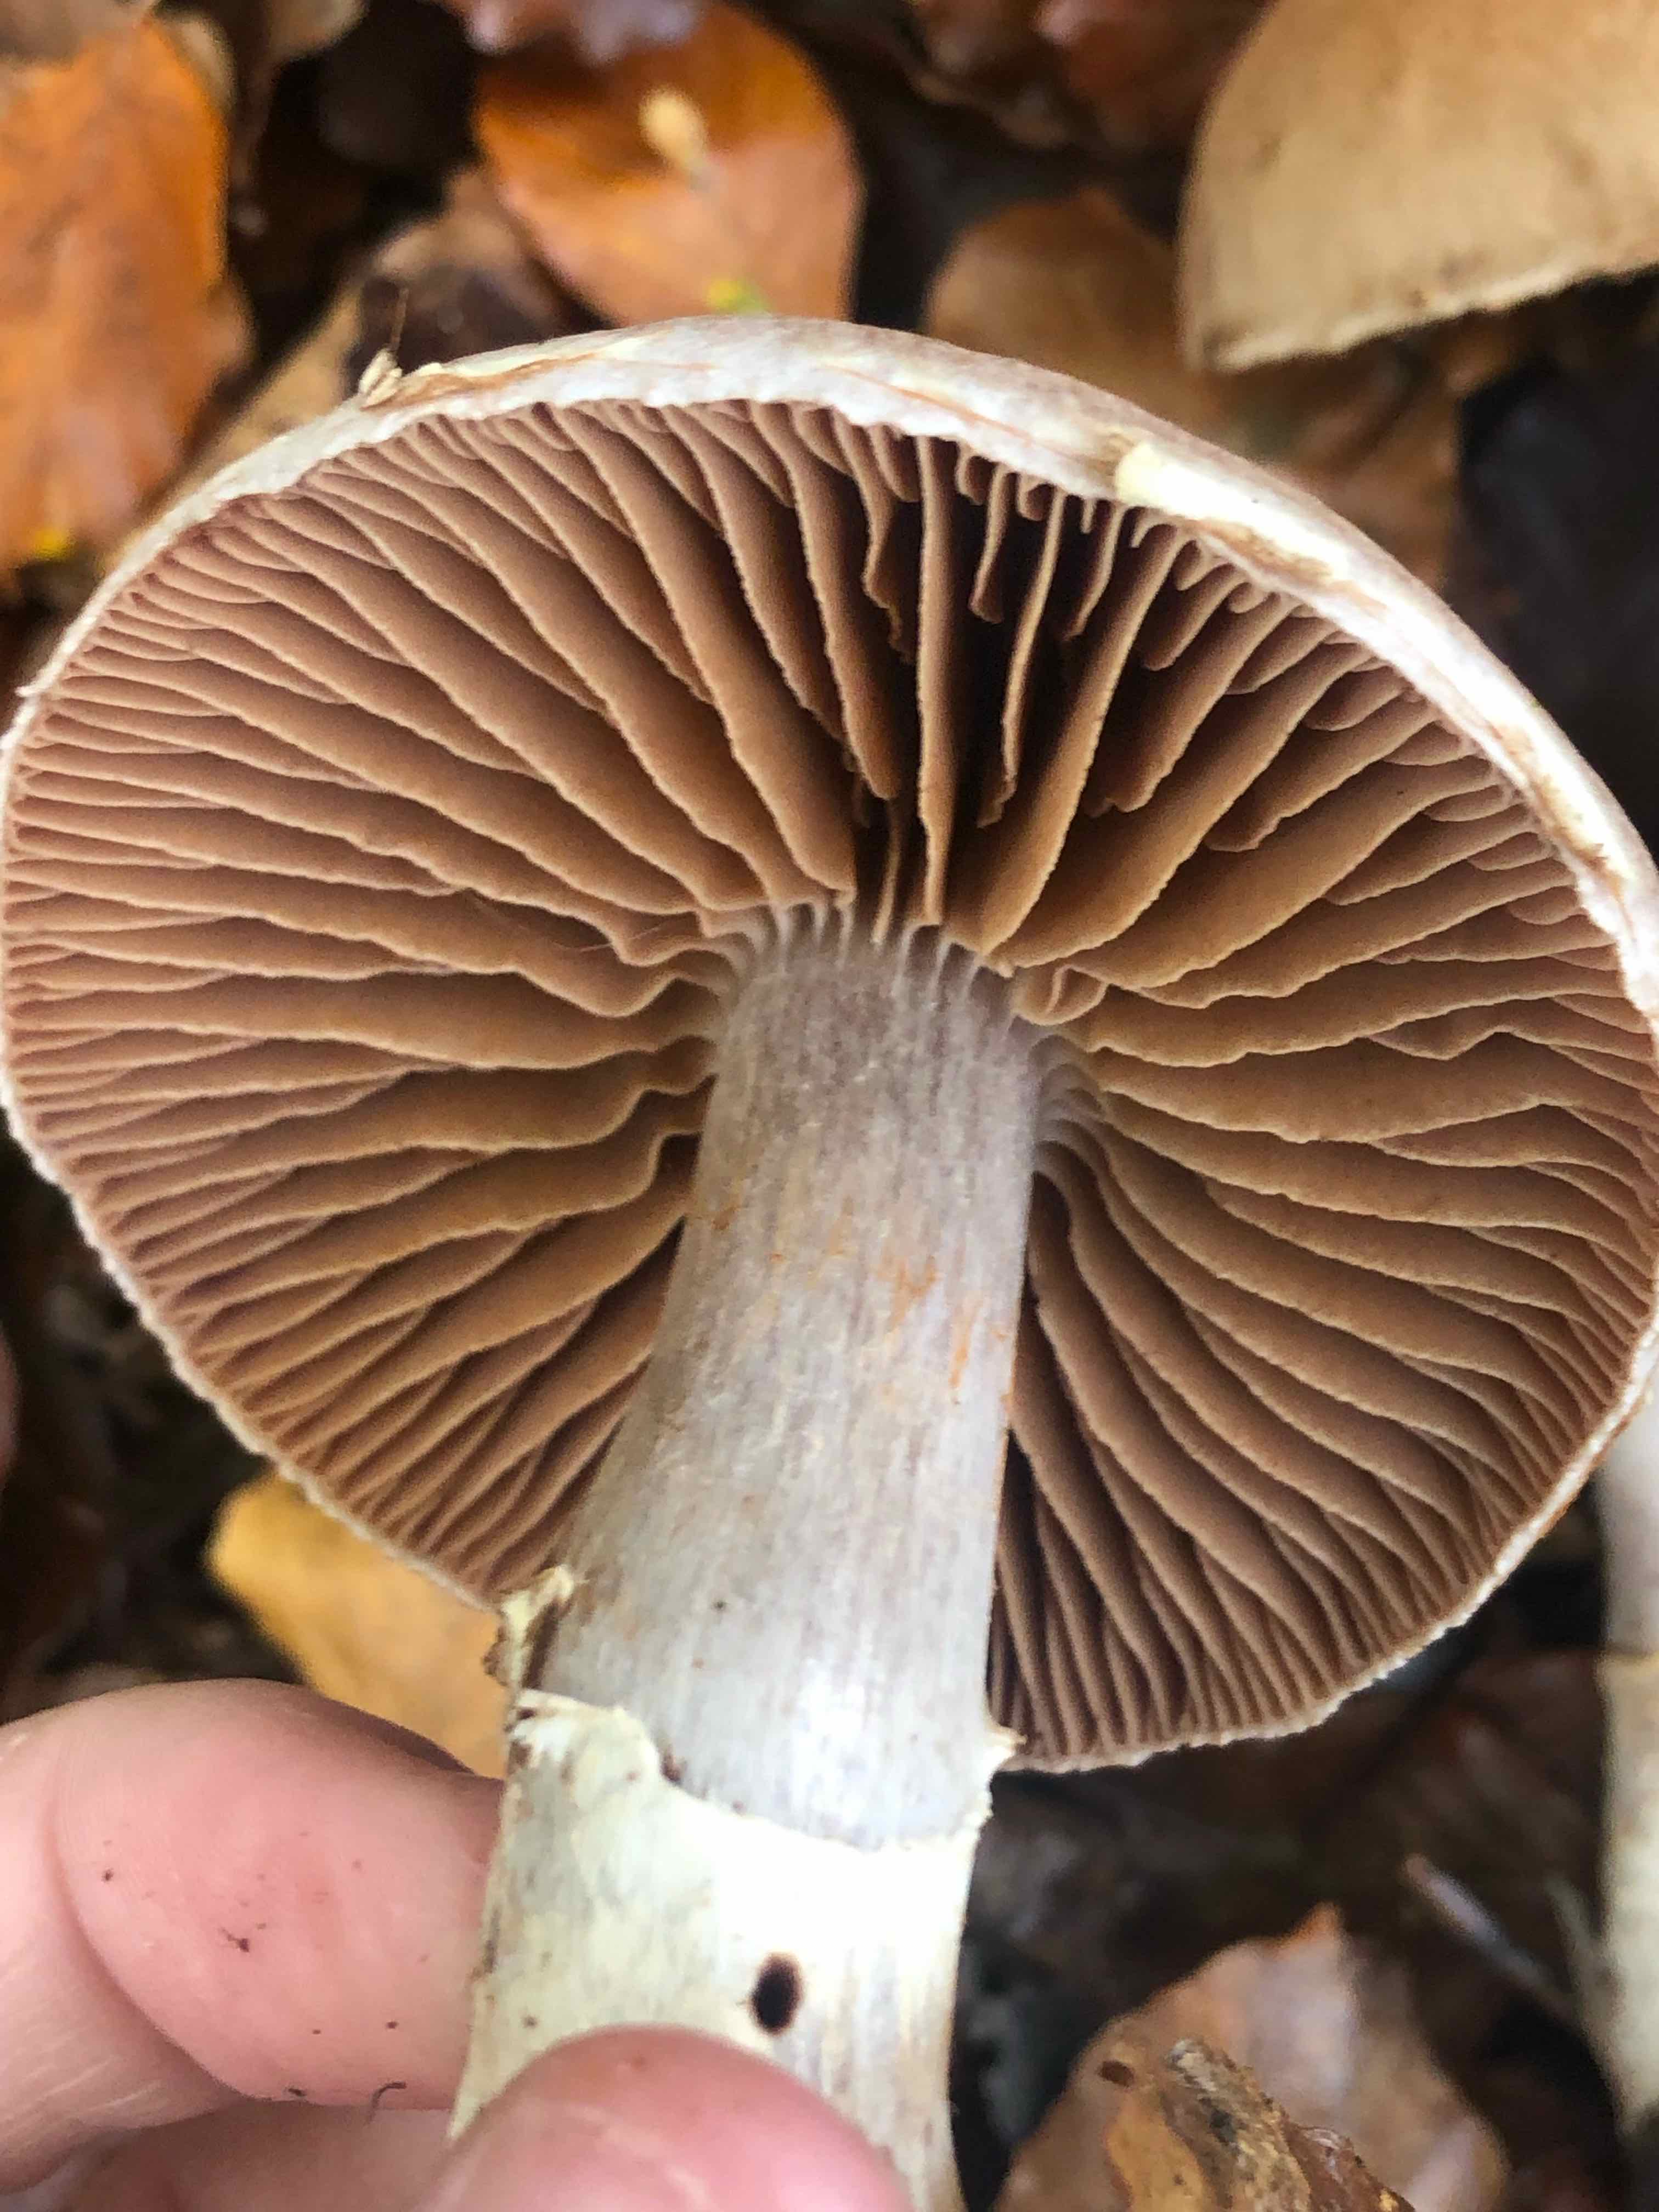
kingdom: Fungi
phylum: Basidiomycota
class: Agaricomycetes
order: Agaricales
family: Cortinariaceae
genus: Cortinarius
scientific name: Cortinarius torvus
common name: champignonagtig slørhat
